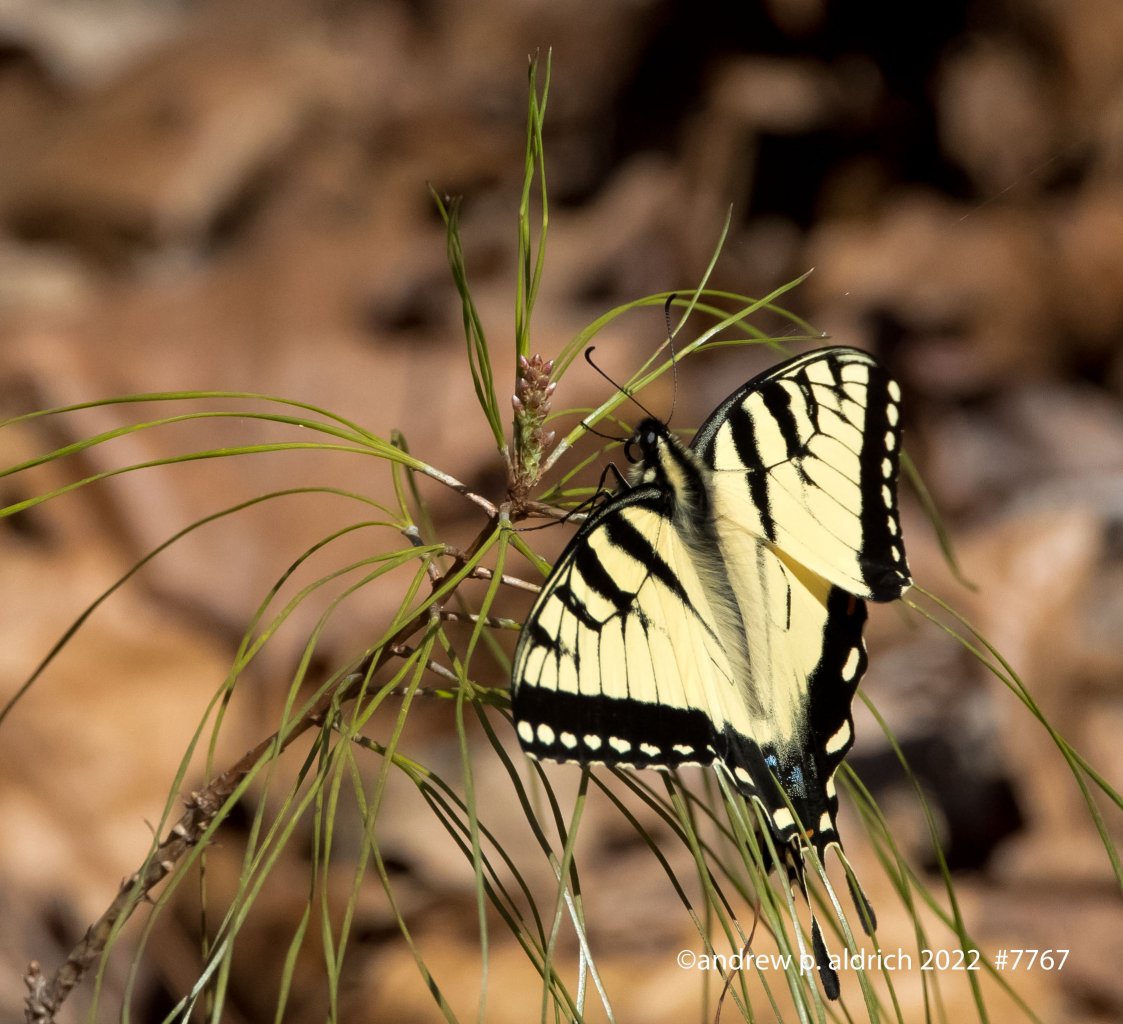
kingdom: Animalia
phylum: Arthropoda
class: Insecta
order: Lepidoptera
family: Papilionidae
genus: Pterourus
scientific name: Pterourus glaucus
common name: Eastern Tiger Swallowtail
